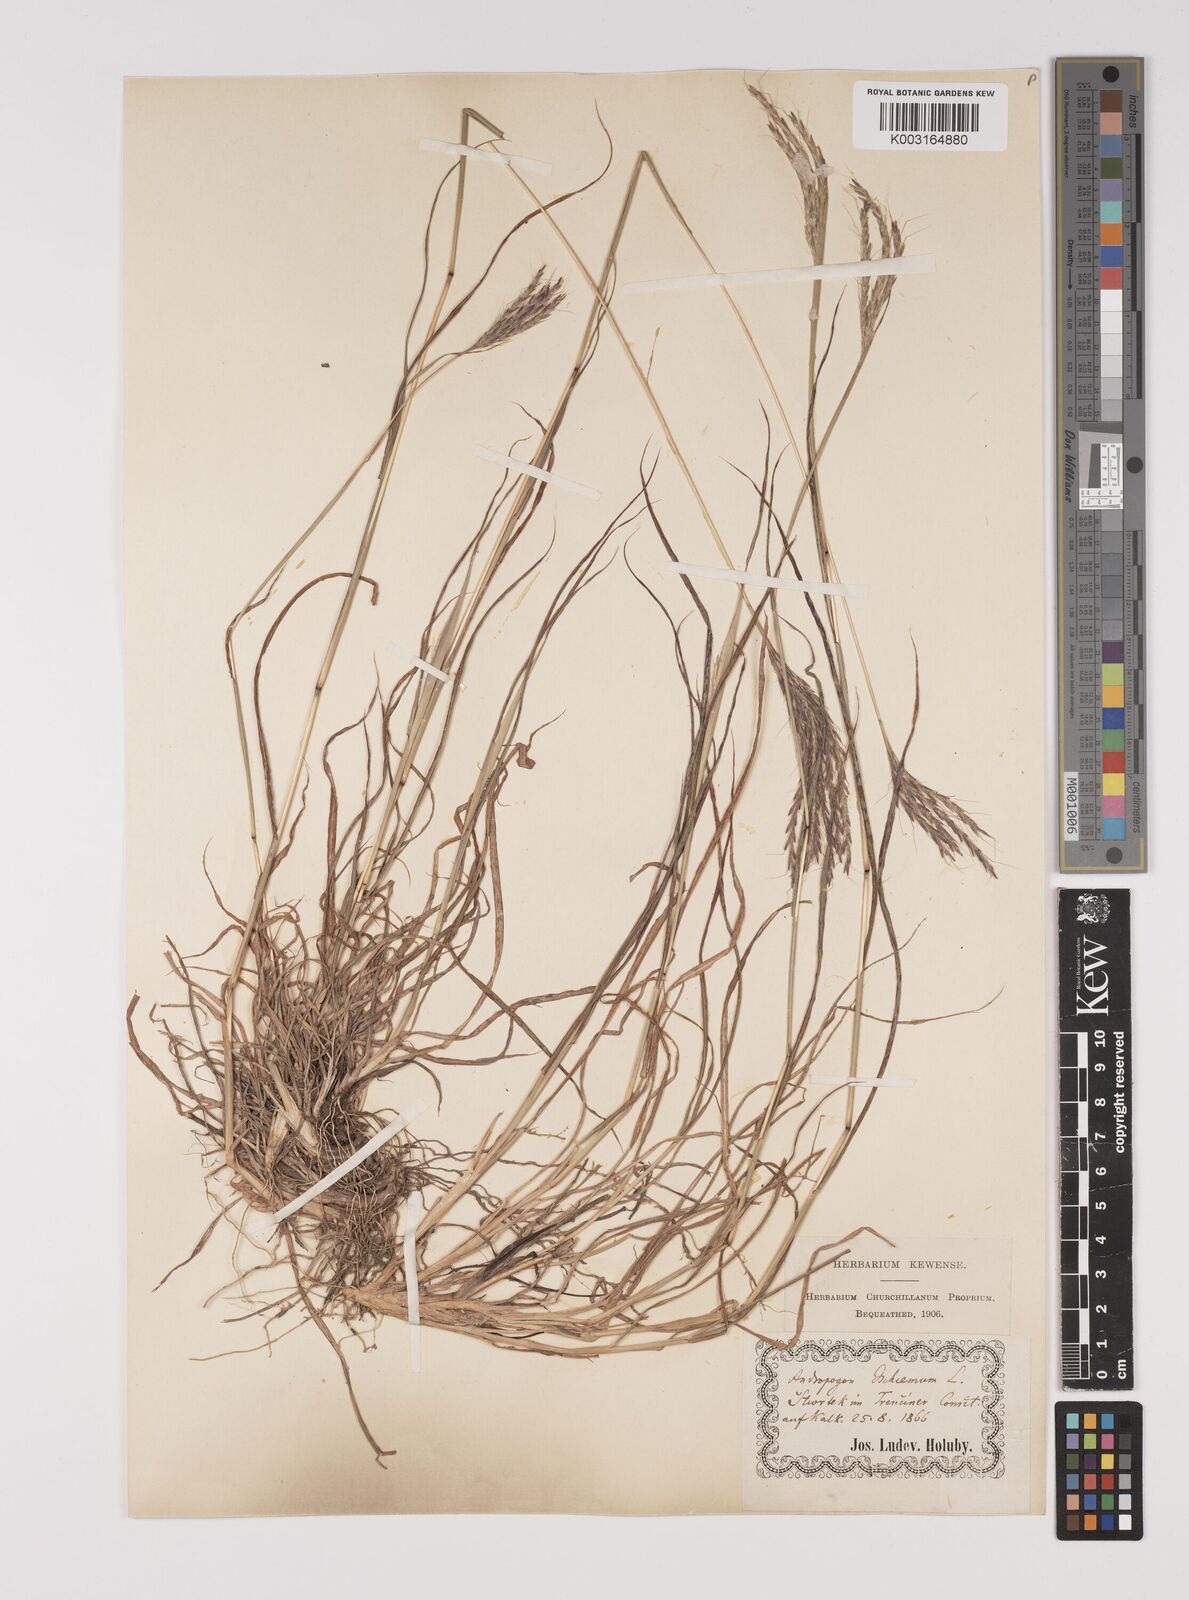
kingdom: Plantae
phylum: Tracheophyta
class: Liliopsida
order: Poales
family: Poaceae
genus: Bothriochloa
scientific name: Bothriochloa ischaemum
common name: Yellow bluestem
